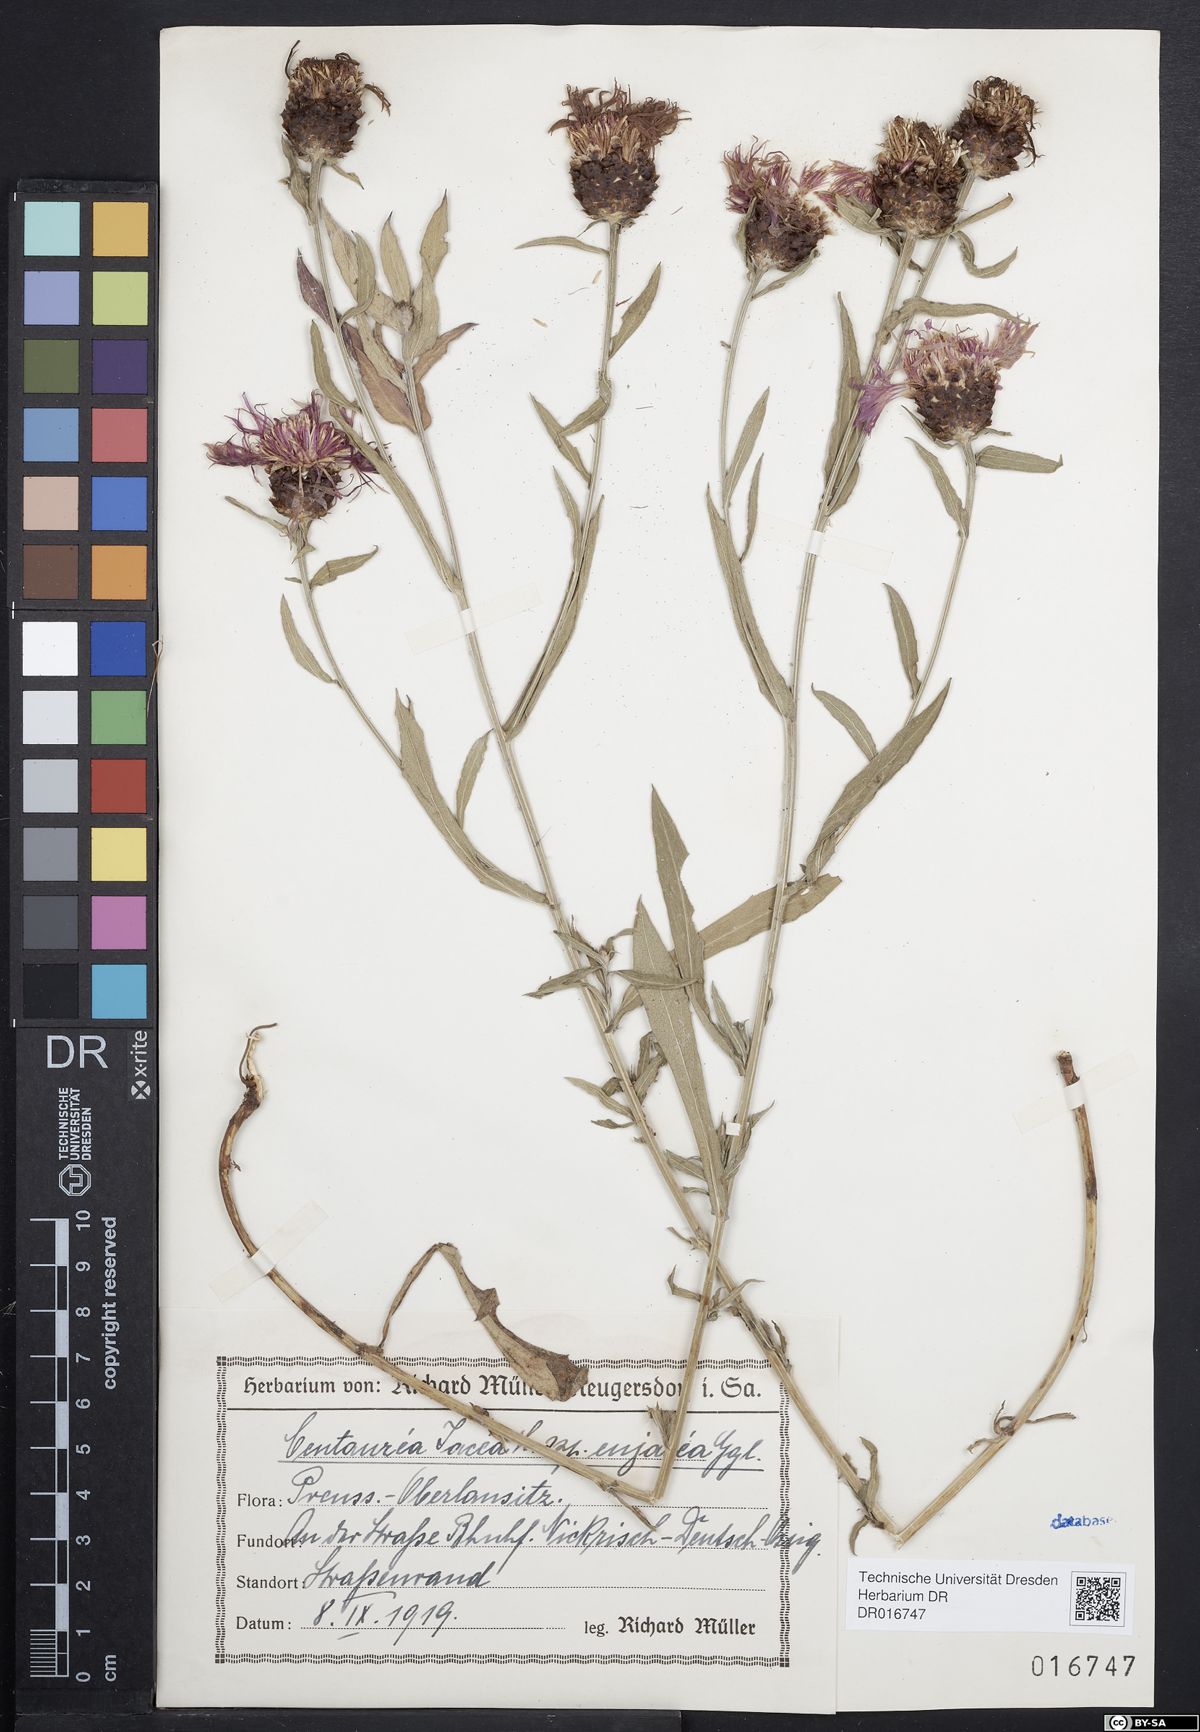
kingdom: Plantae
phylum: Tracheophyta
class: Magnoliopsida
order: Asterales
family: Asteraceae
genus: Centaurea
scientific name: Centaurea jacea
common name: Brown knapweed
